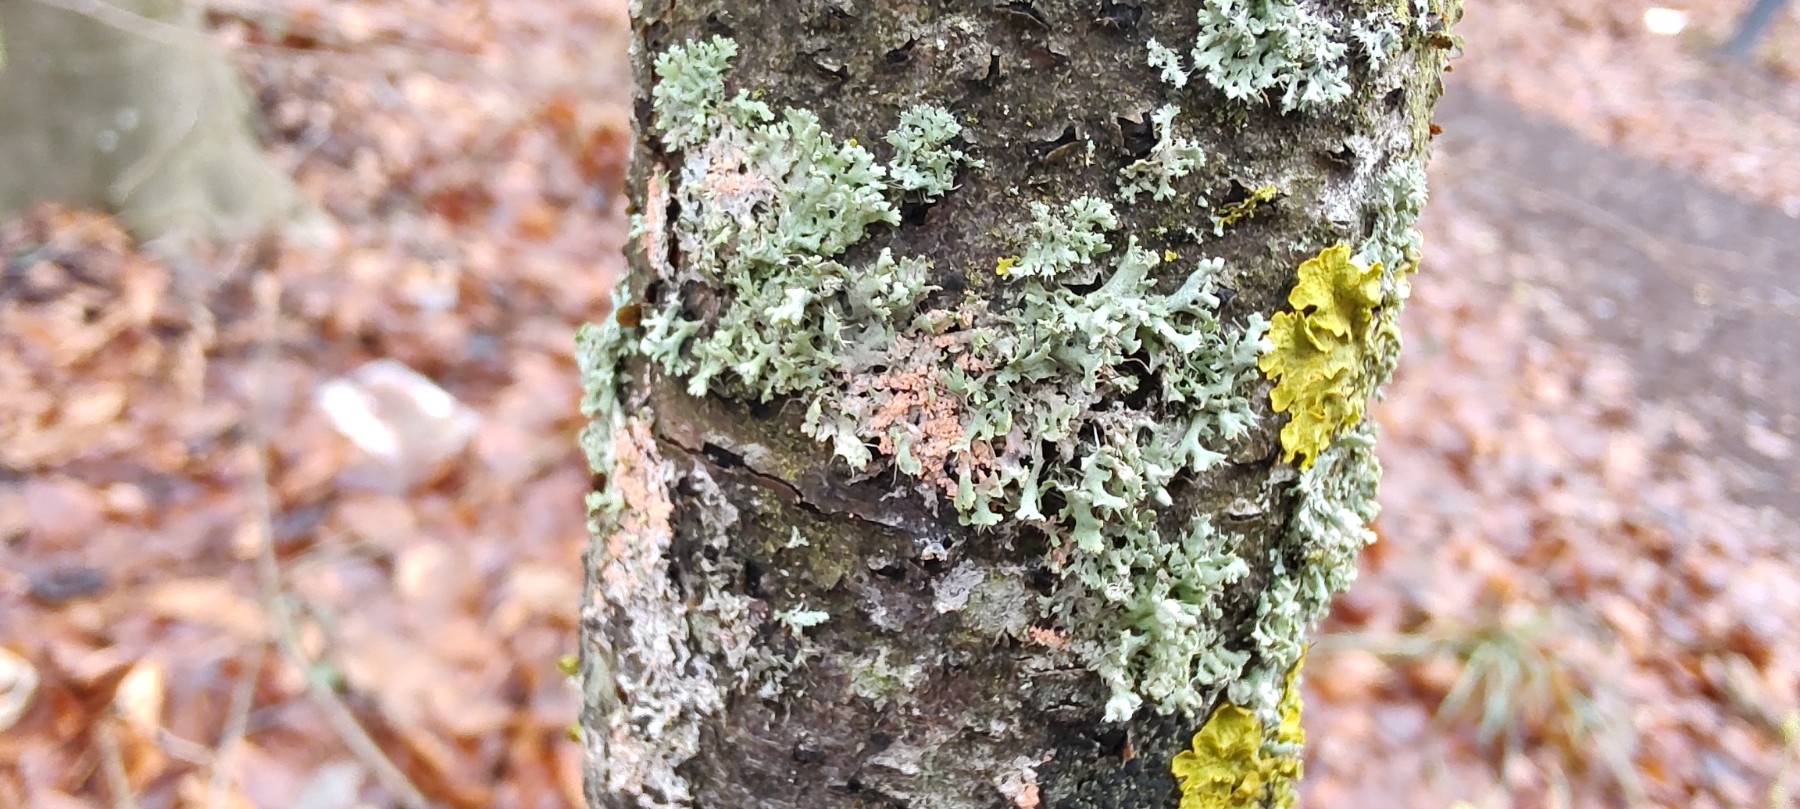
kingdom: Fungi
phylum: Basidiomycota
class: Agaricomycetes
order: Corticiales
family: Corticiaceae
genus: Erythricium
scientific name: Erythricium aurantiacum
